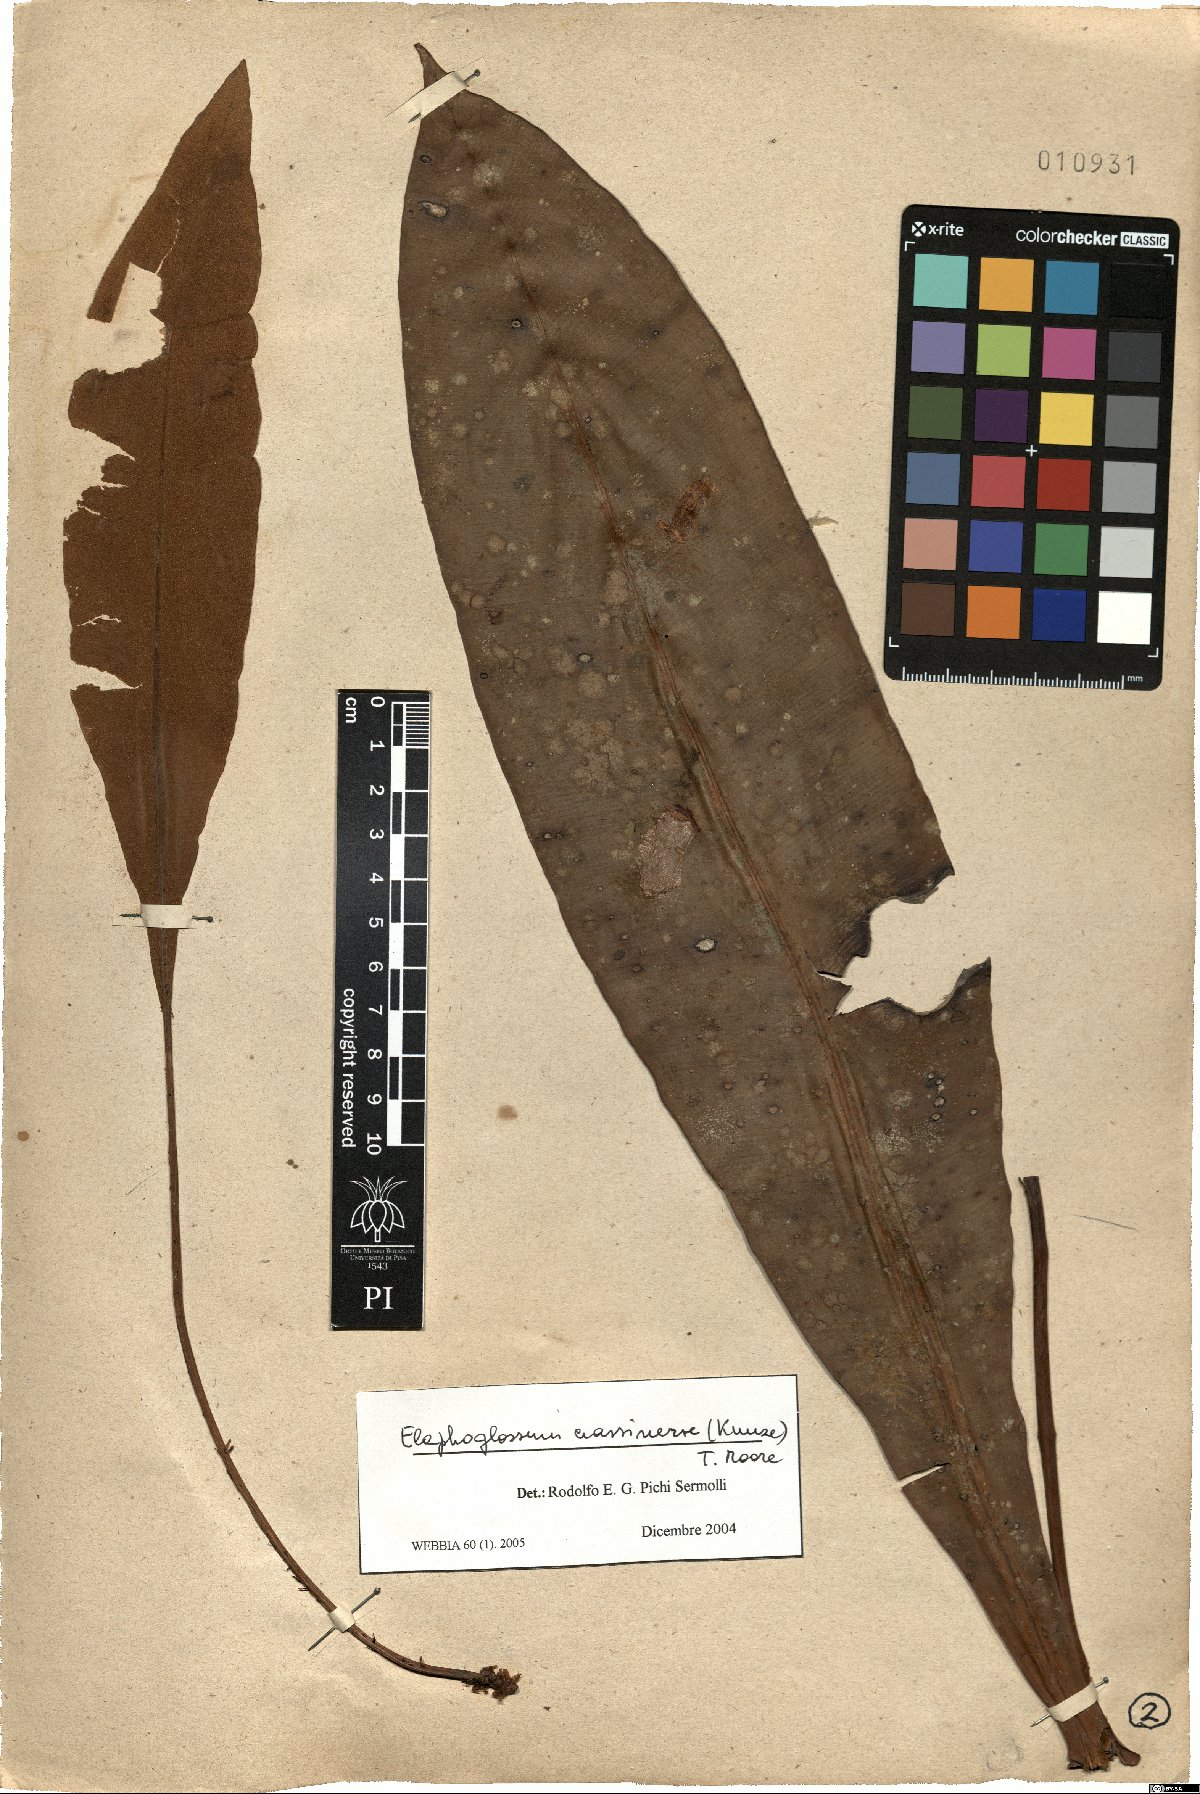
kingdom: Plantae
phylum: Tracheophyta
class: Polypodiopsida
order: Polypodiales
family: Dryopteridaceae
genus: Elaphoglossum
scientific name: Elaphoglossum crassinerve
